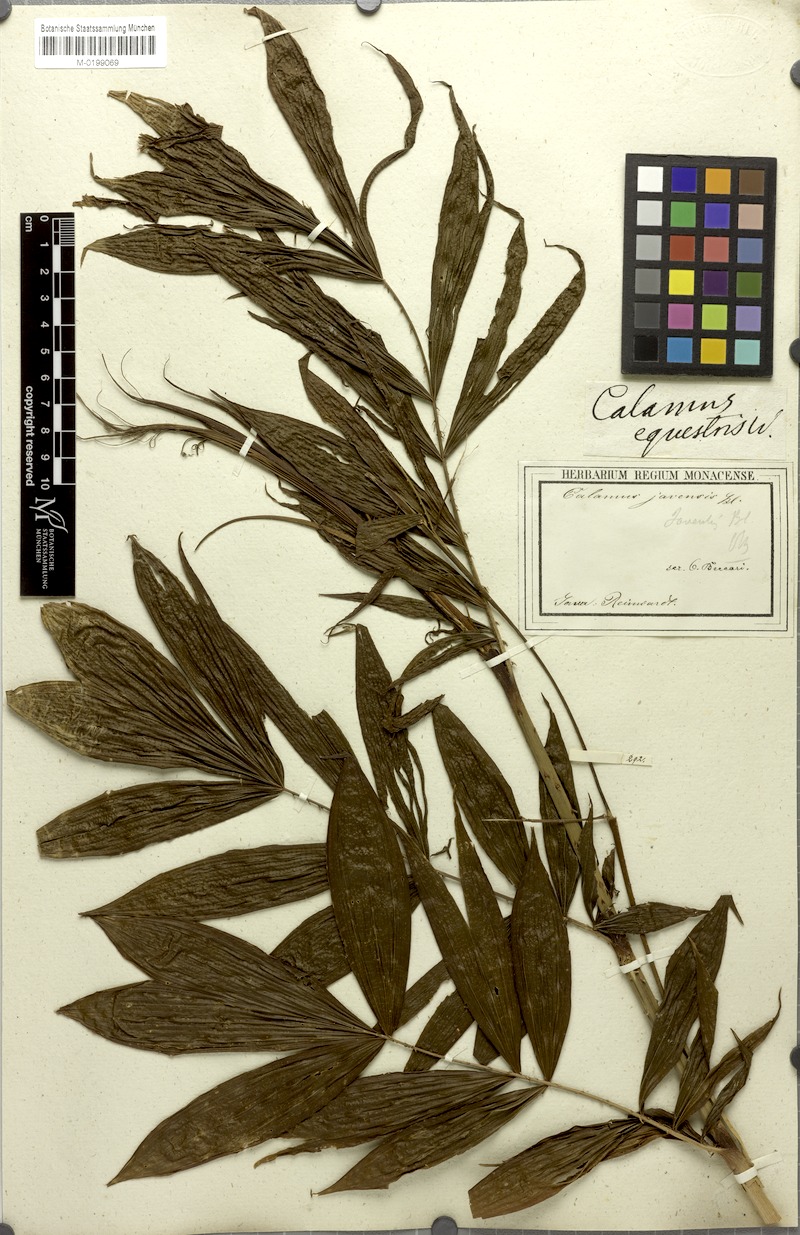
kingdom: Plantae
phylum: Tracheophyta
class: Liliopsida
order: Arecales
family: Arecaceae
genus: Calamus
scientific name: Calamus javensis
